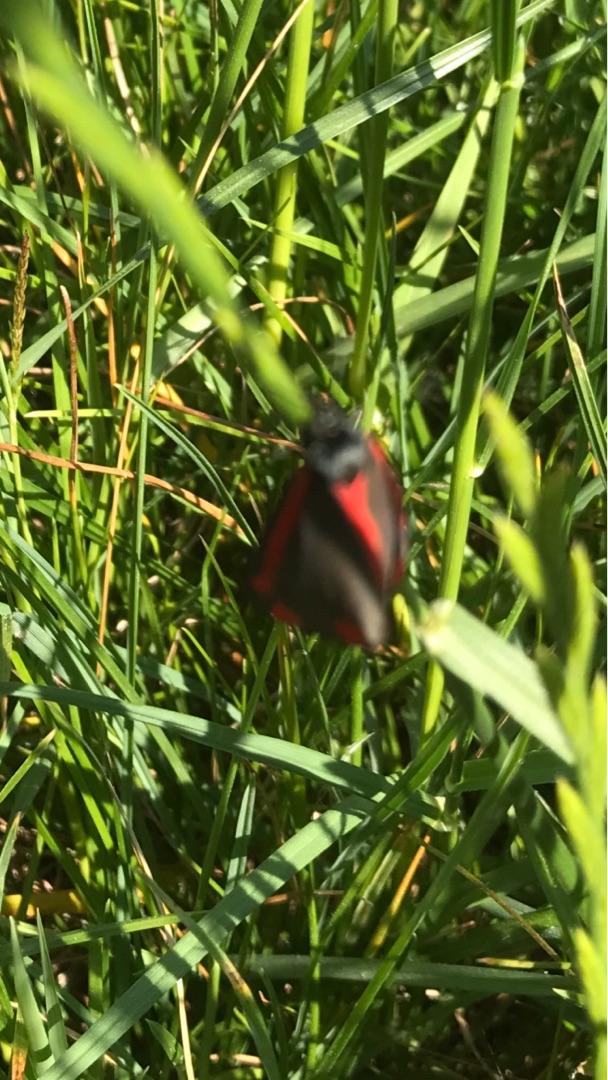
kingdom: Animalia
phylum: Arthropoda
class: Insecta
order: Lepidoptera
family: Erebidae
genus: Tyria
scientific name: Tyria jacobaeae
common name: Blodplet
